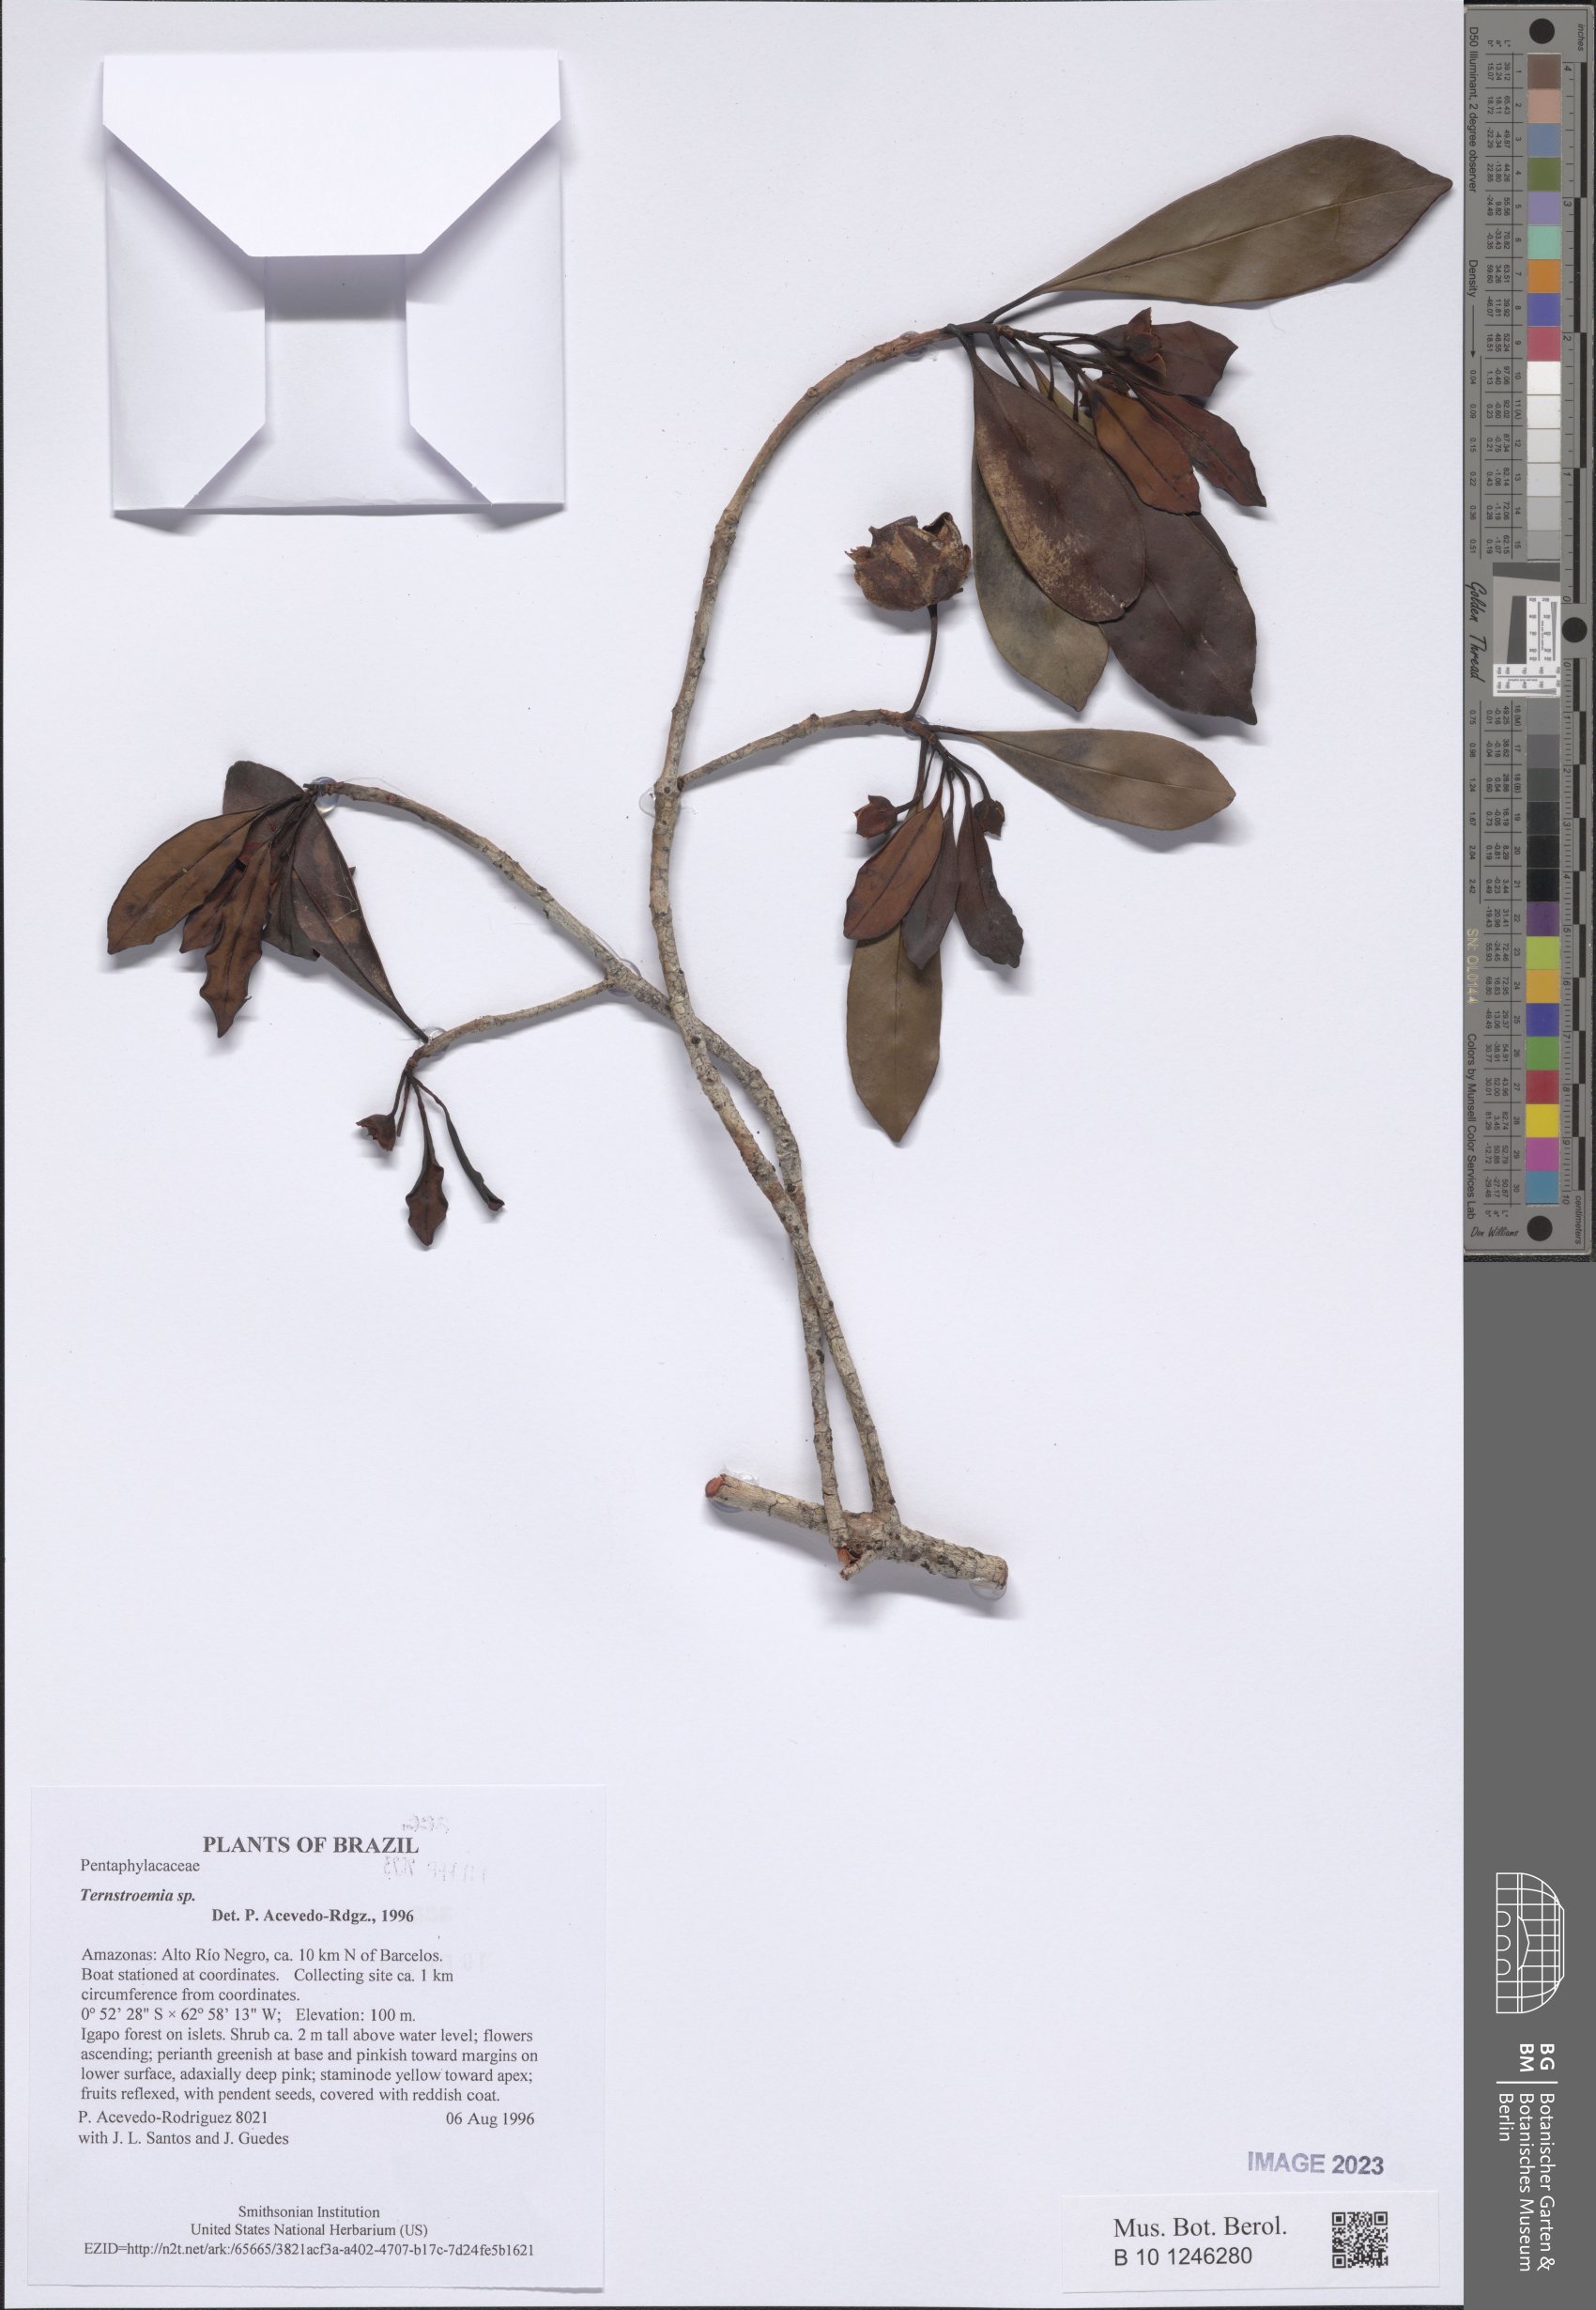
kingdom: Plantae
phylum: Tracheophyta
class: Magnoliopsida
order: Ericales
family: Pentaphylacaceae
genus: Ternstroemia
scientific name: Ternstroemia
